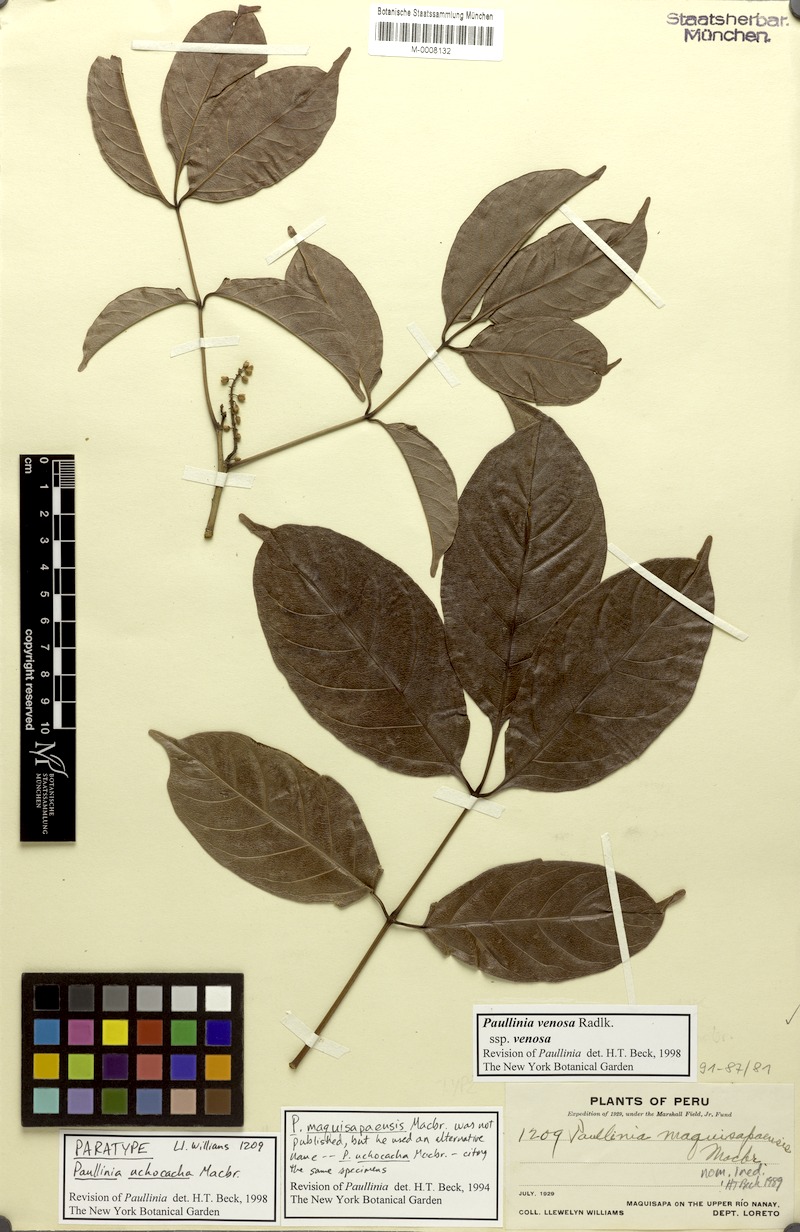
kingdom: Plantae
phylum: Tracheophyta
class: Magnoliopsida
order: Sapindales
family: Sapindaceae
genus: Paullinia
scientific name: Paullinia venosa
